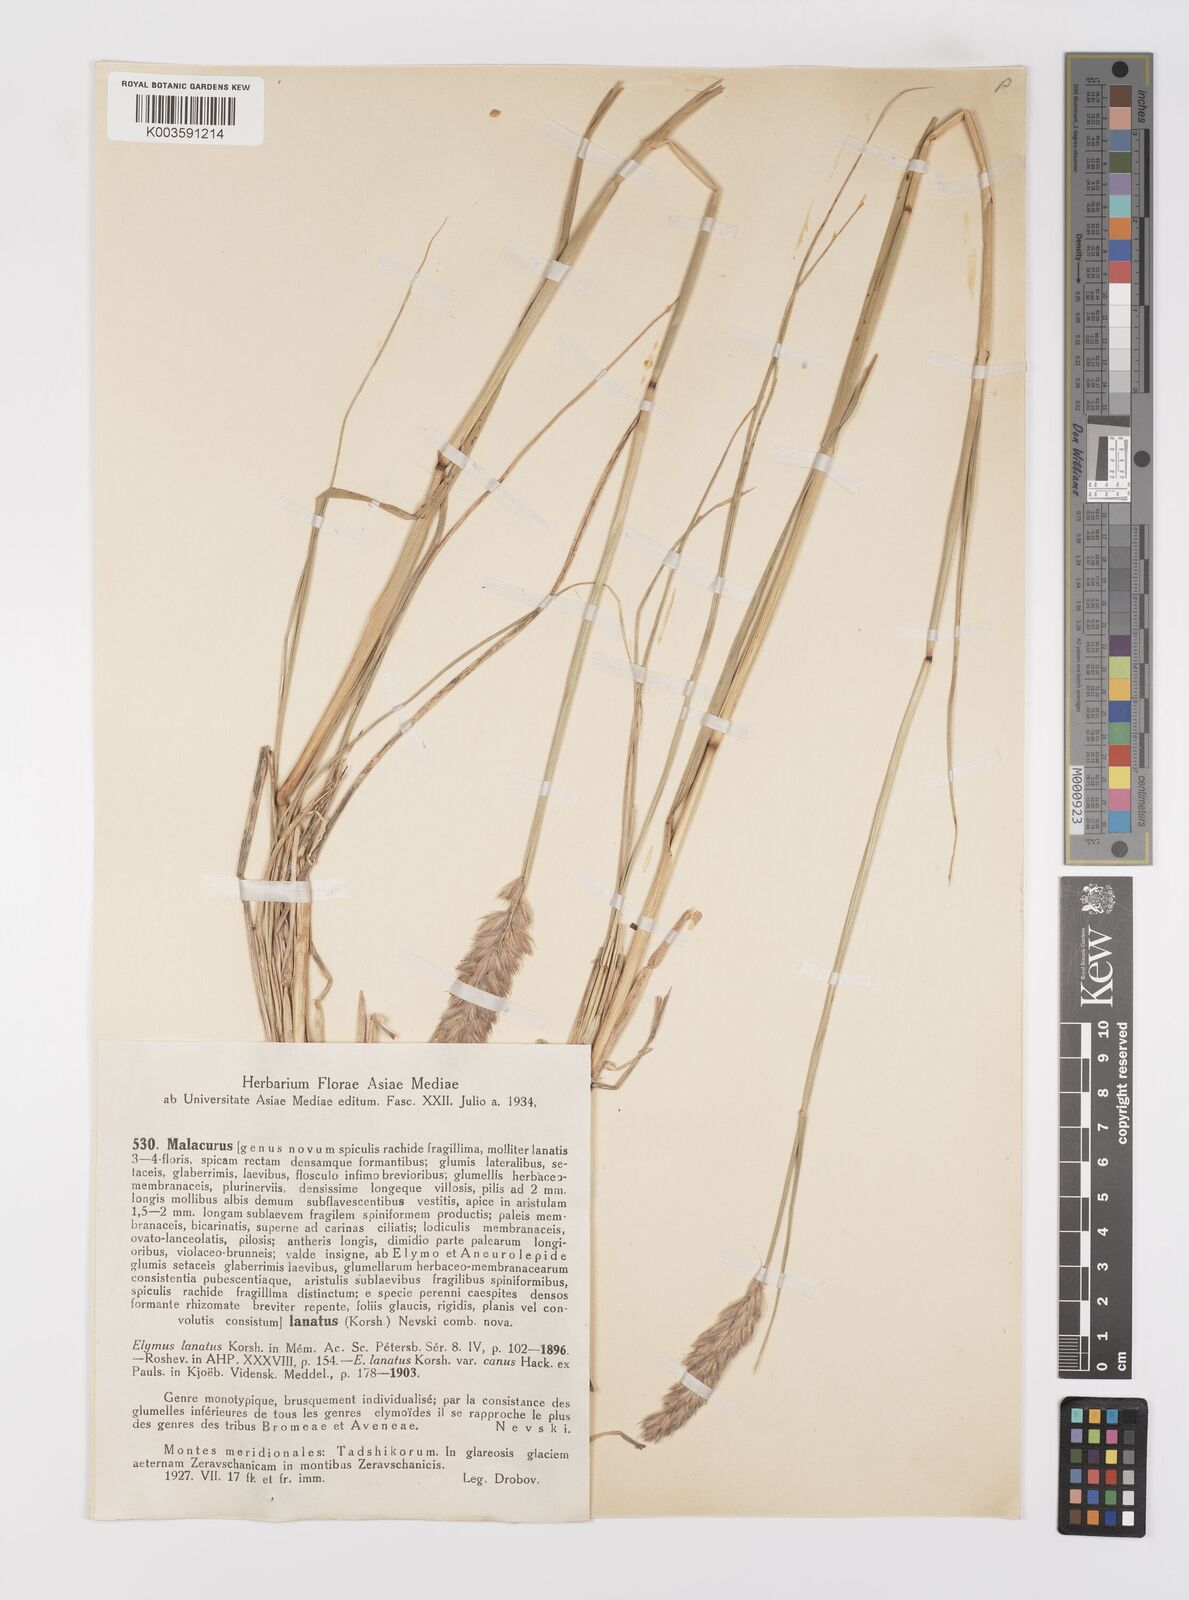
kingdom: Plantae
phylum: Tracheophyta
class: Liliopsida
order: Poales
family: Poaceae
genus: Leymus
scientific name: Leymus lanatus
